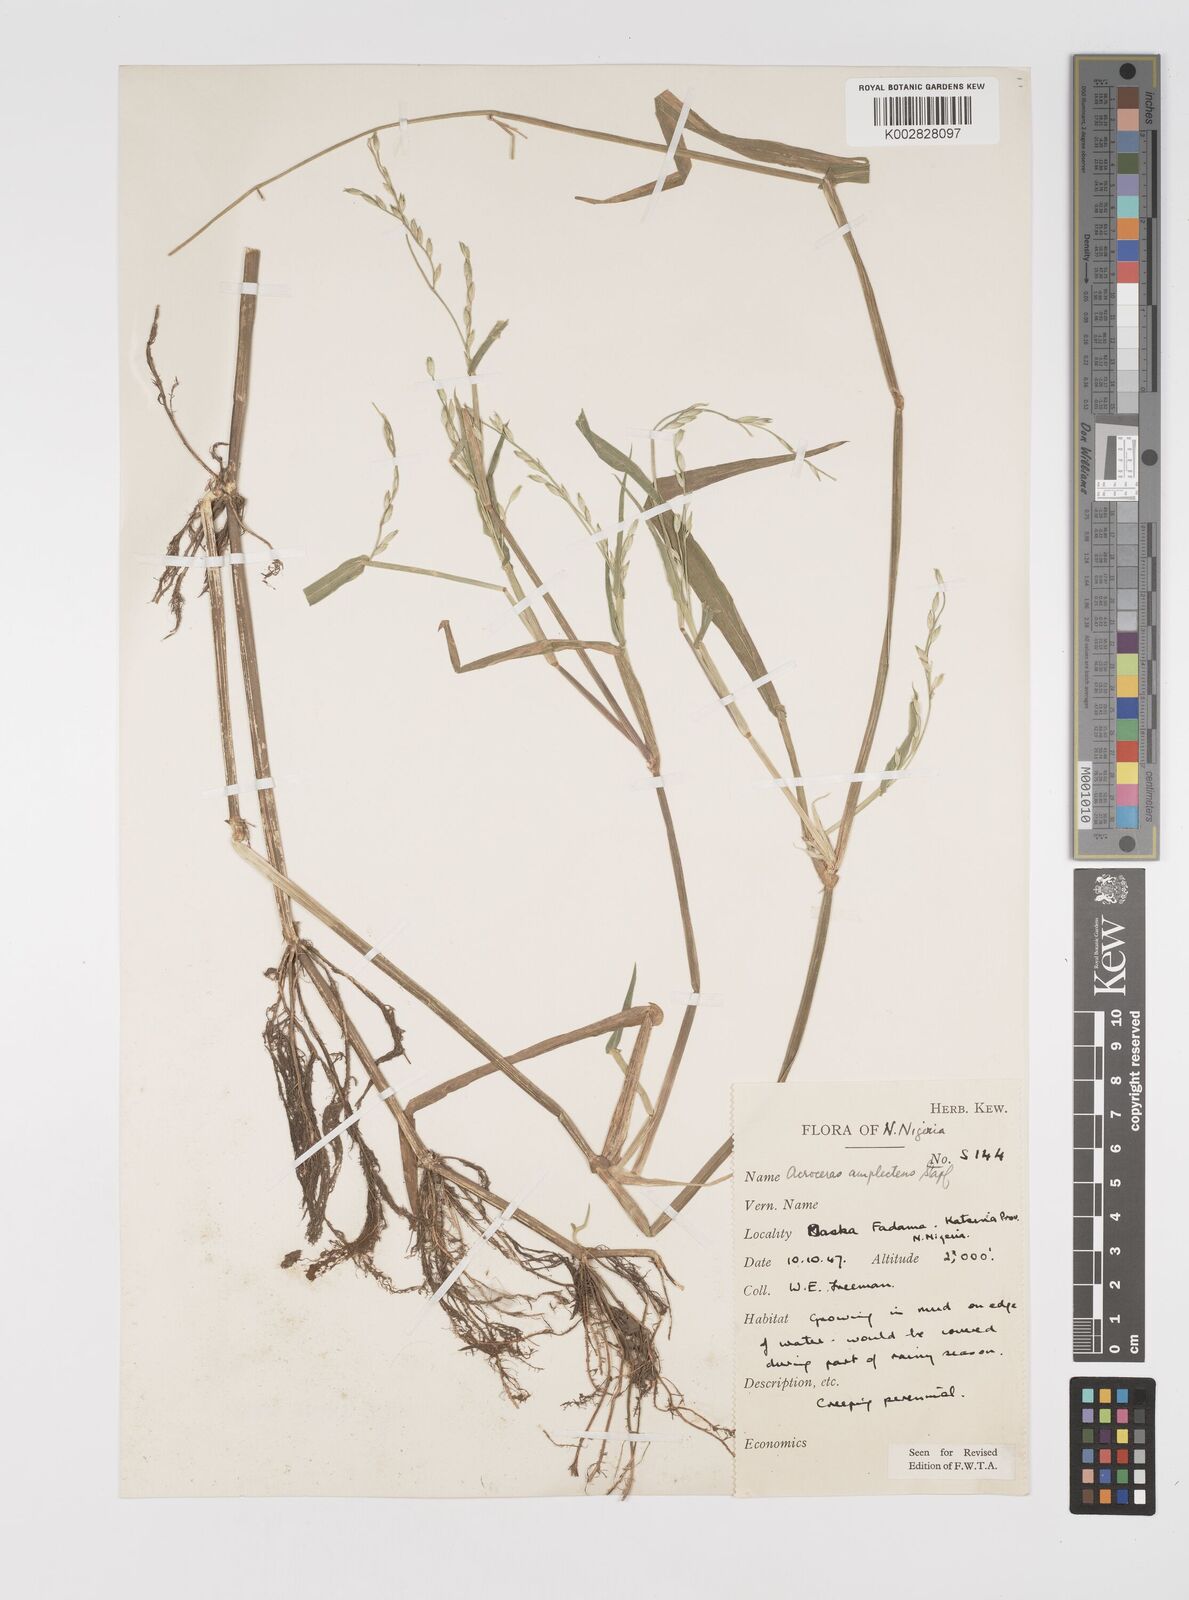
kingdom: Plantae
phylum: Tracheophyta
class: Liliopsida
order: Poales
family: Poaceae
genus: Acroceras
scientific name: Acroceras amplectens
